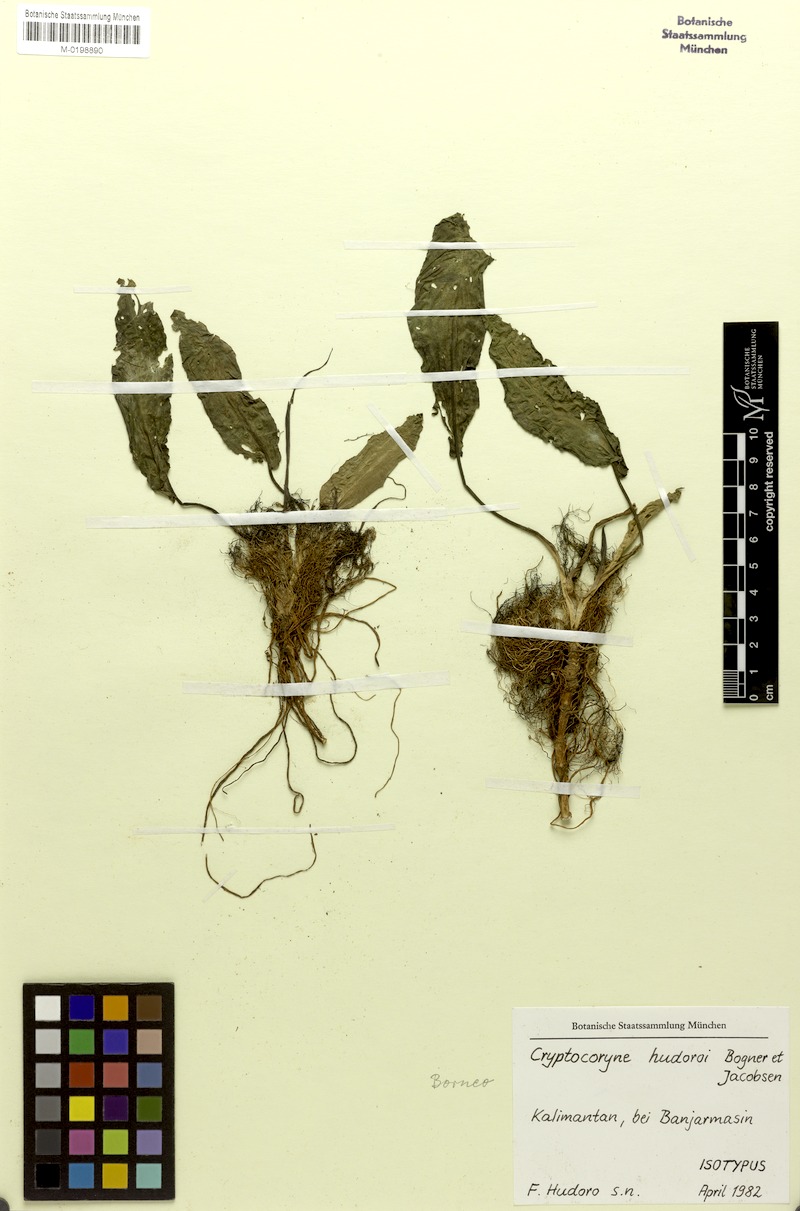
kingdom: Plantae
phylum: Tracheophyta
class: Liliopsida
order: Alismatales
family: Araceae
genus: Cryptocoryne
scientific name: Cryptocoryne hudoroi
